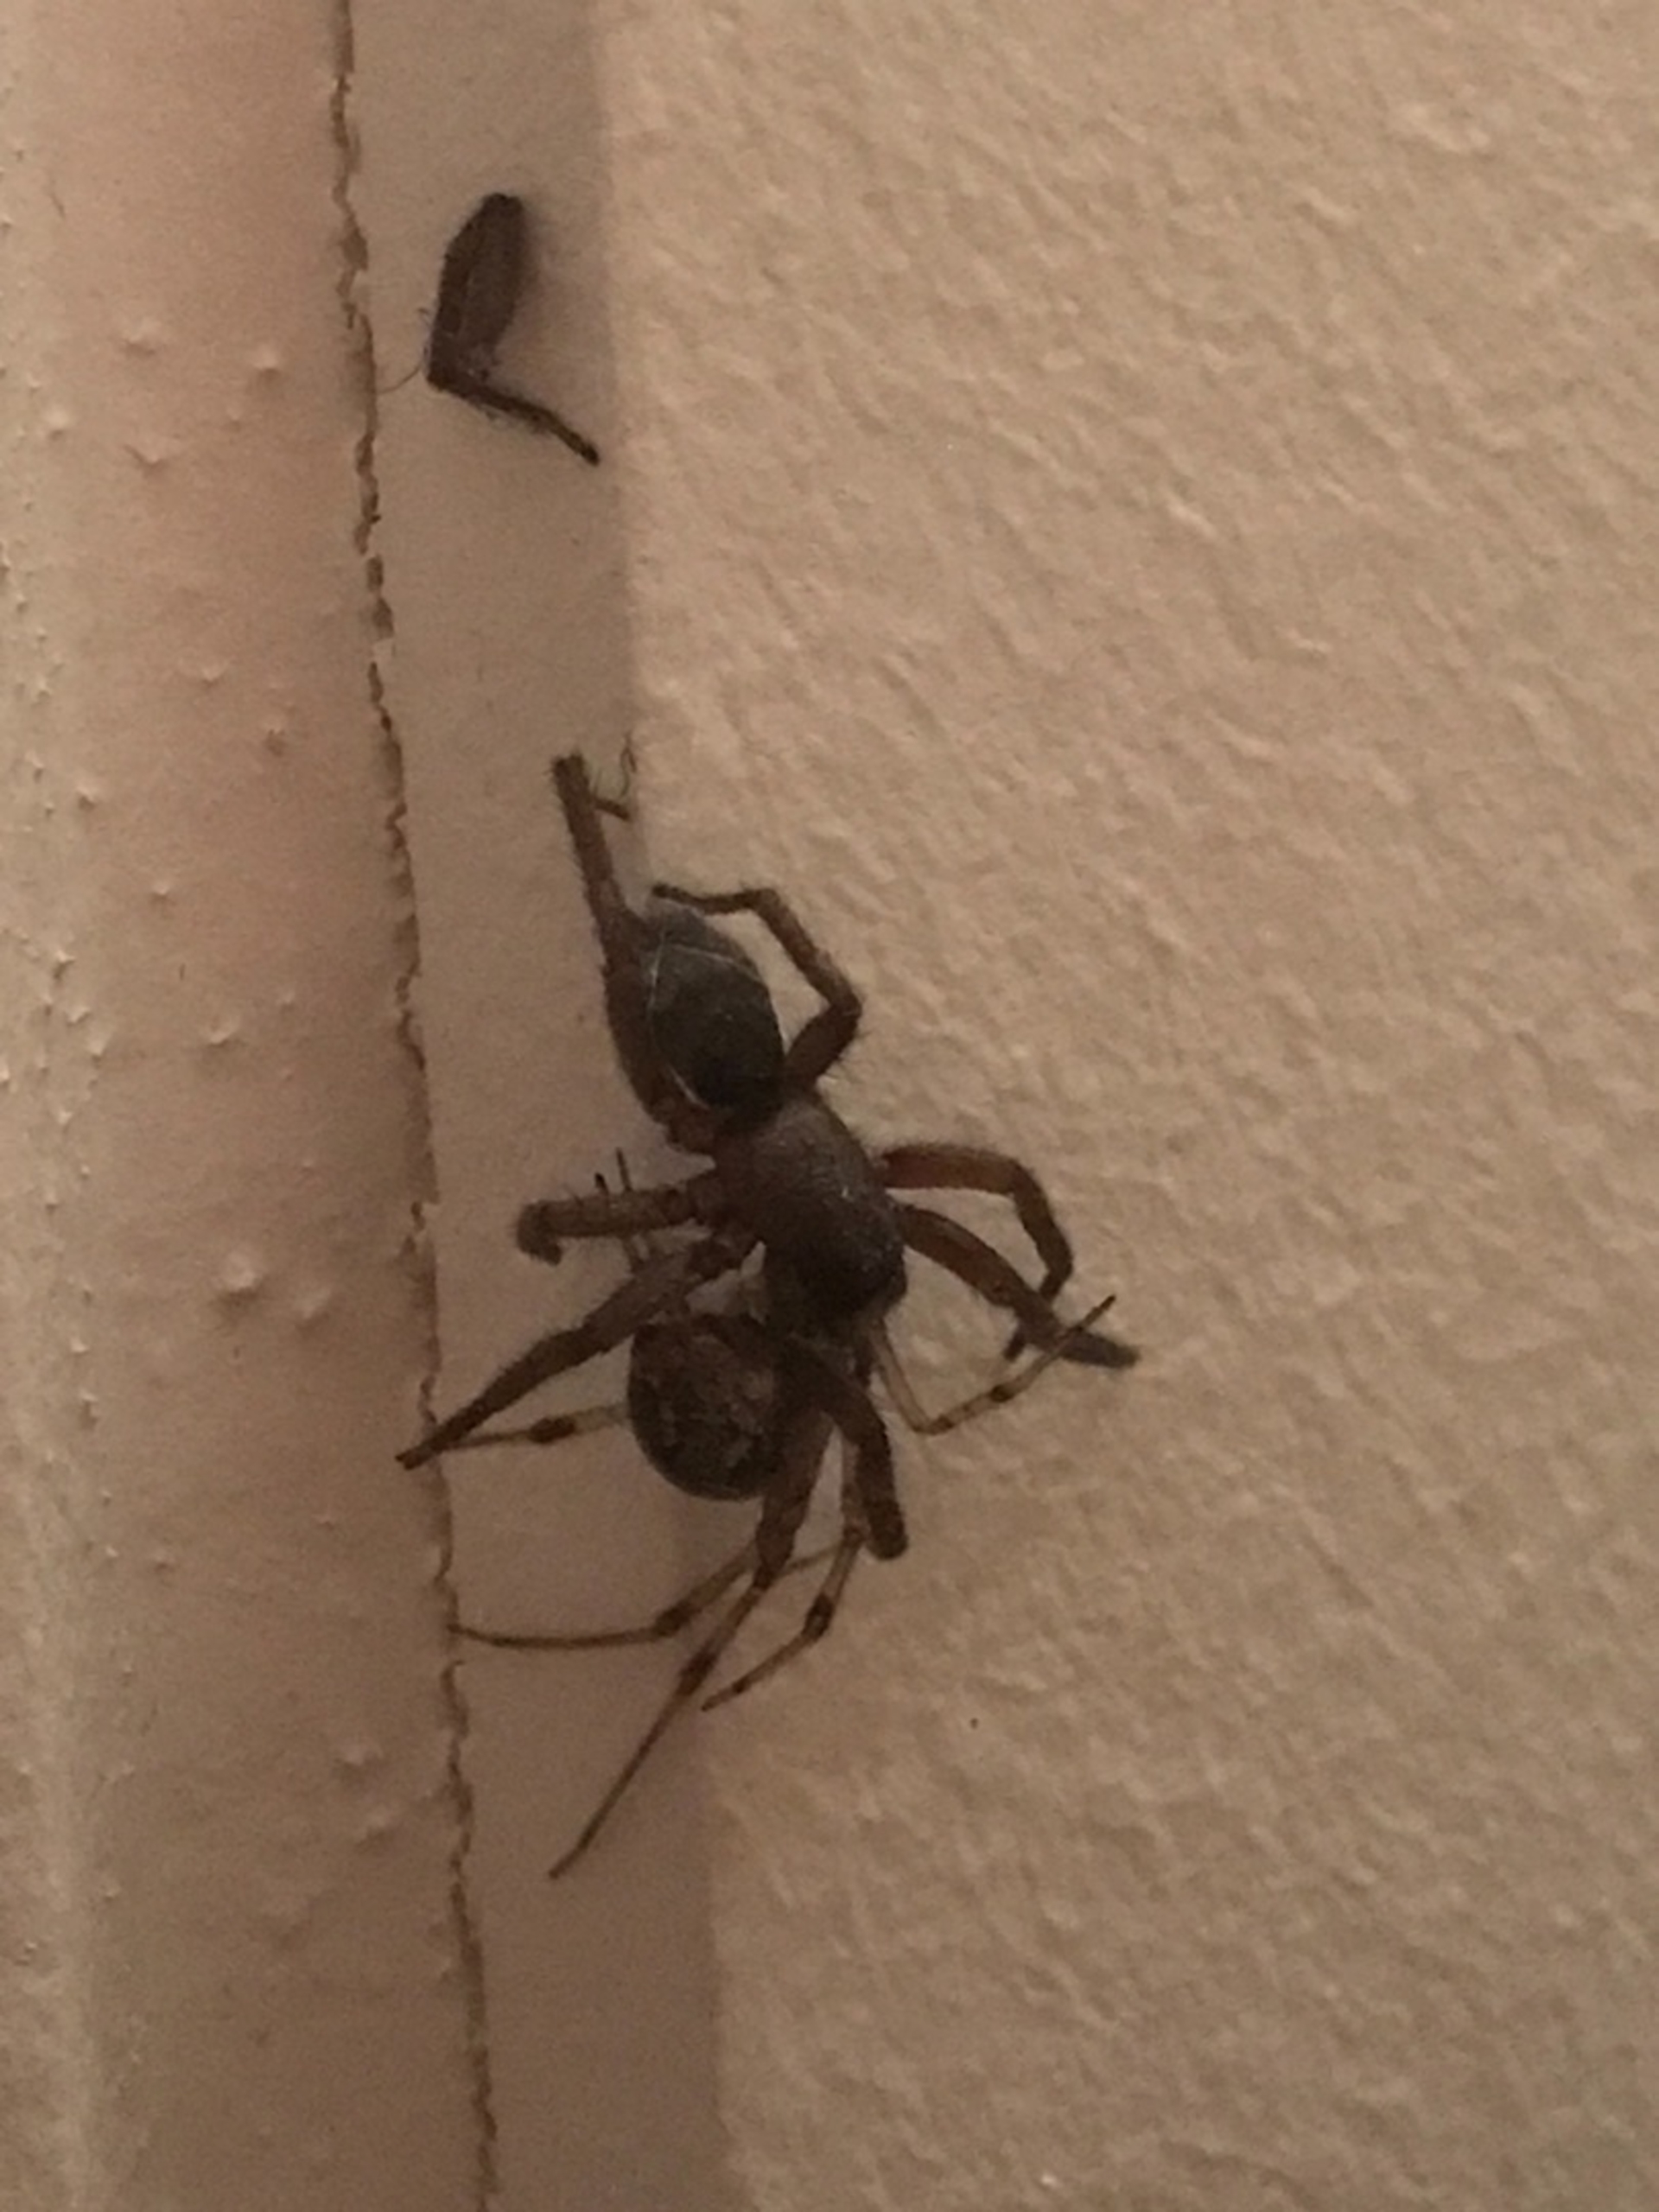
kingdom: Animalia
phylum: Arthropoda
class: Arachnida
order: Araneae
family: Theridiidae
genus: Parasteatoda
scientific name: Parasteatoda tepidariorum
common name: Væksthusspinder
